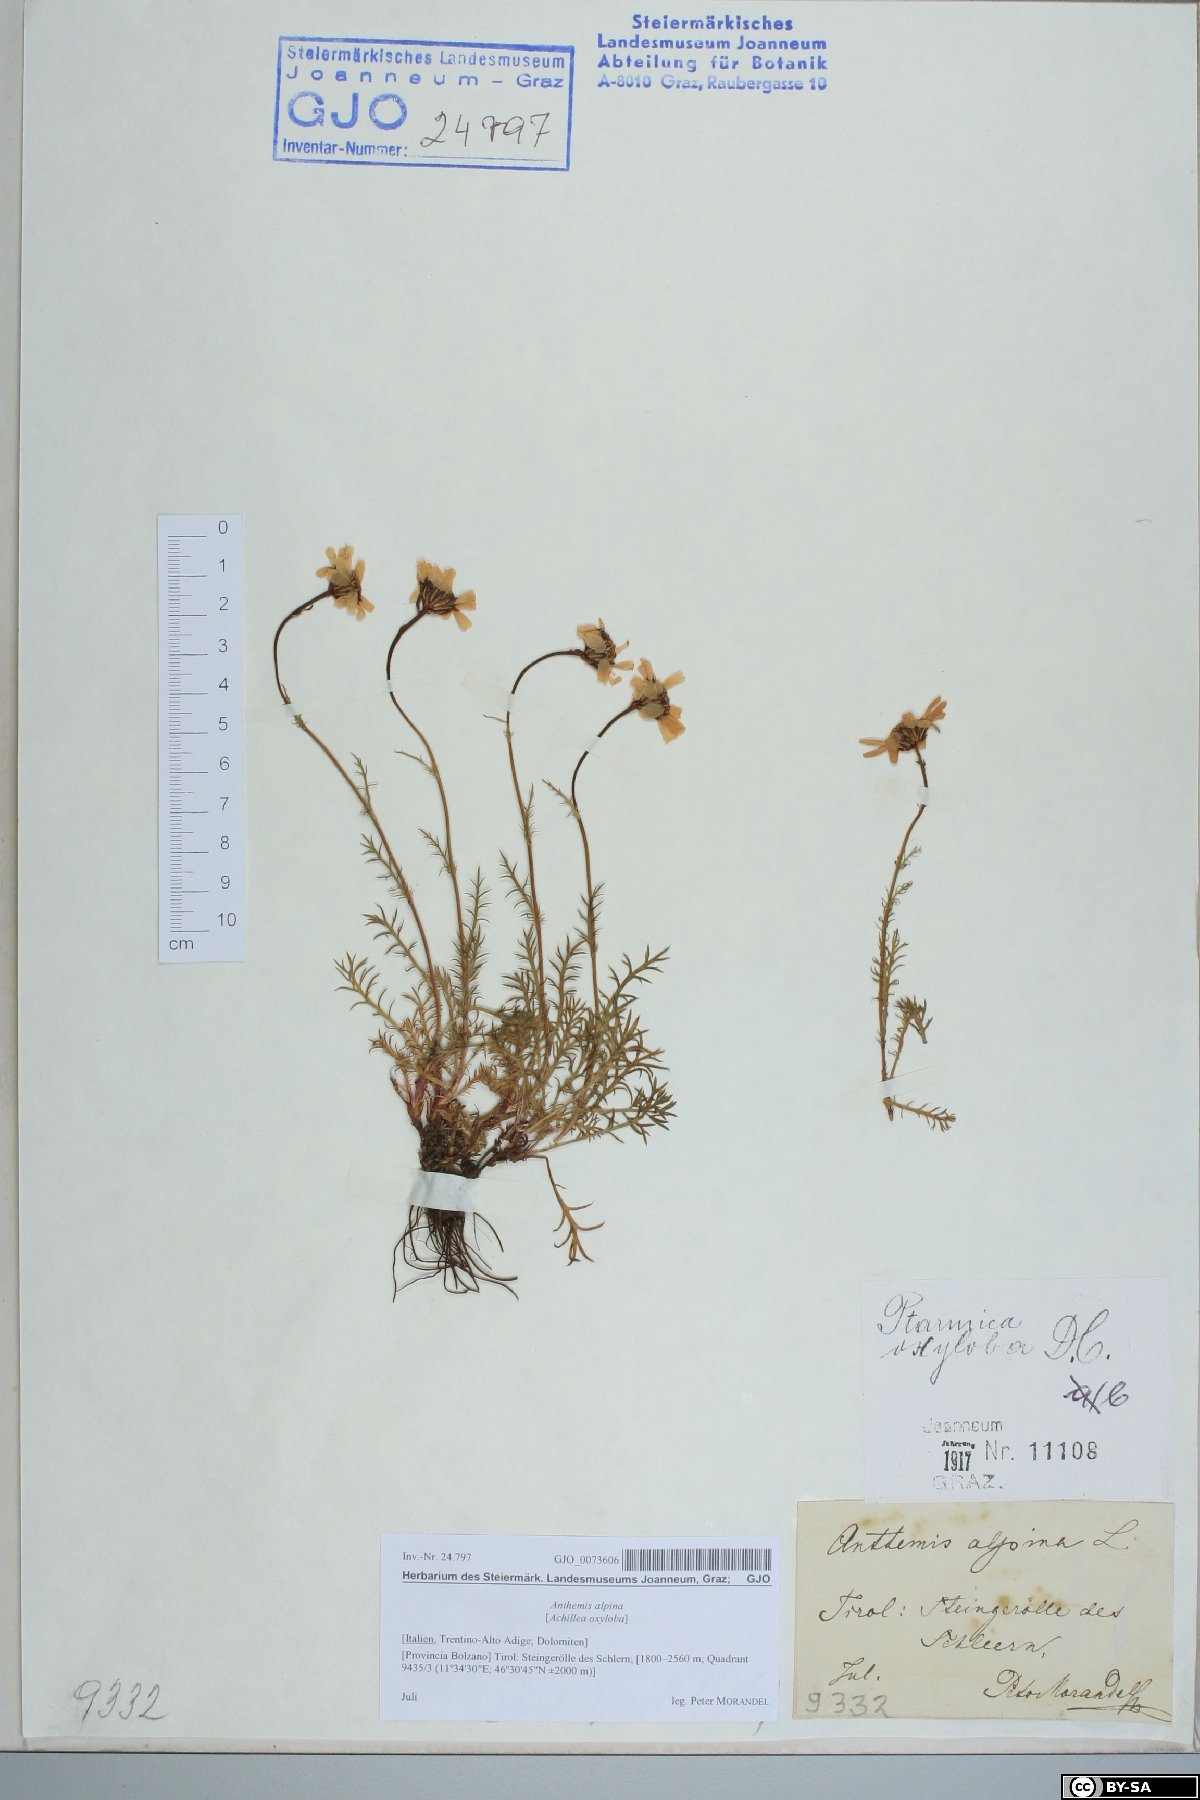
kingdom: Plantae
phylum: Tracheophyta
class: Magnoliopsida
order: Asterales
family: Asteraceae
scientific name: Asteraceae
